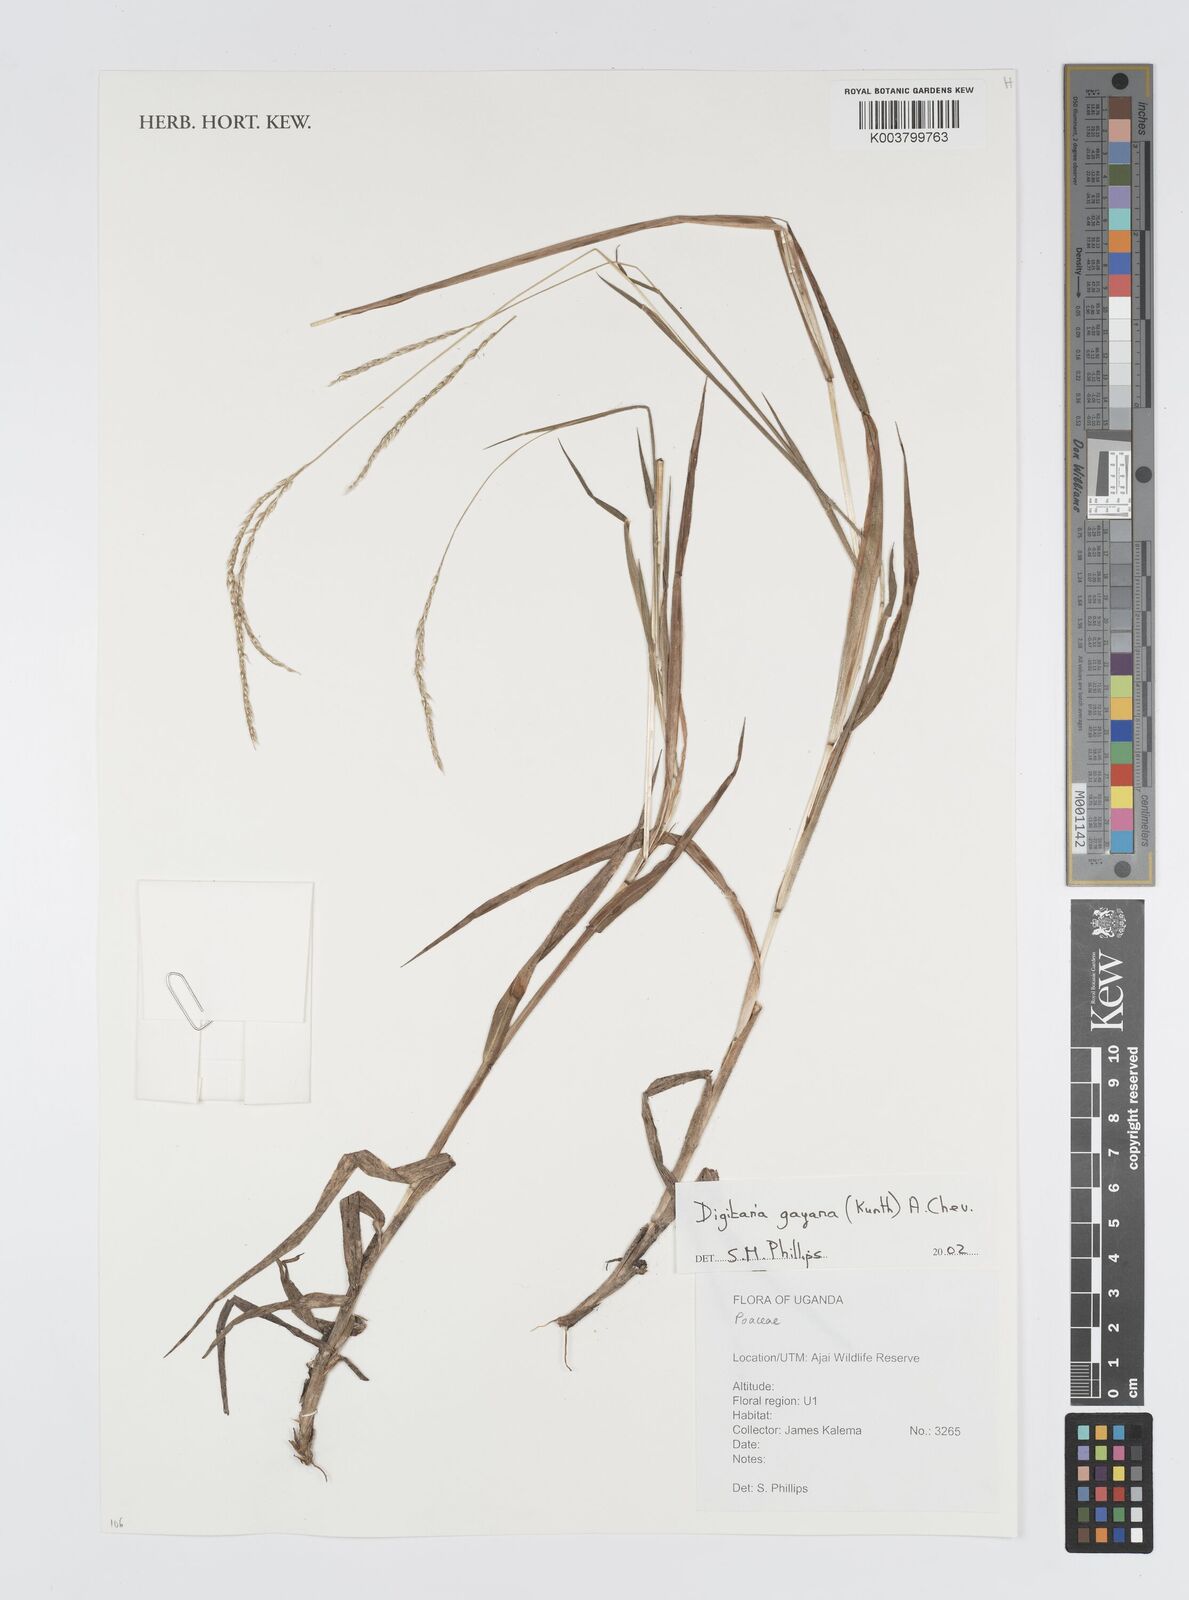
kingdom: Plantae
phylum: Tracheophyta
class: Liliopsida
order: Poales
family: Poaceae
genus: Digitaria
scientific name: Digitaria gayana
